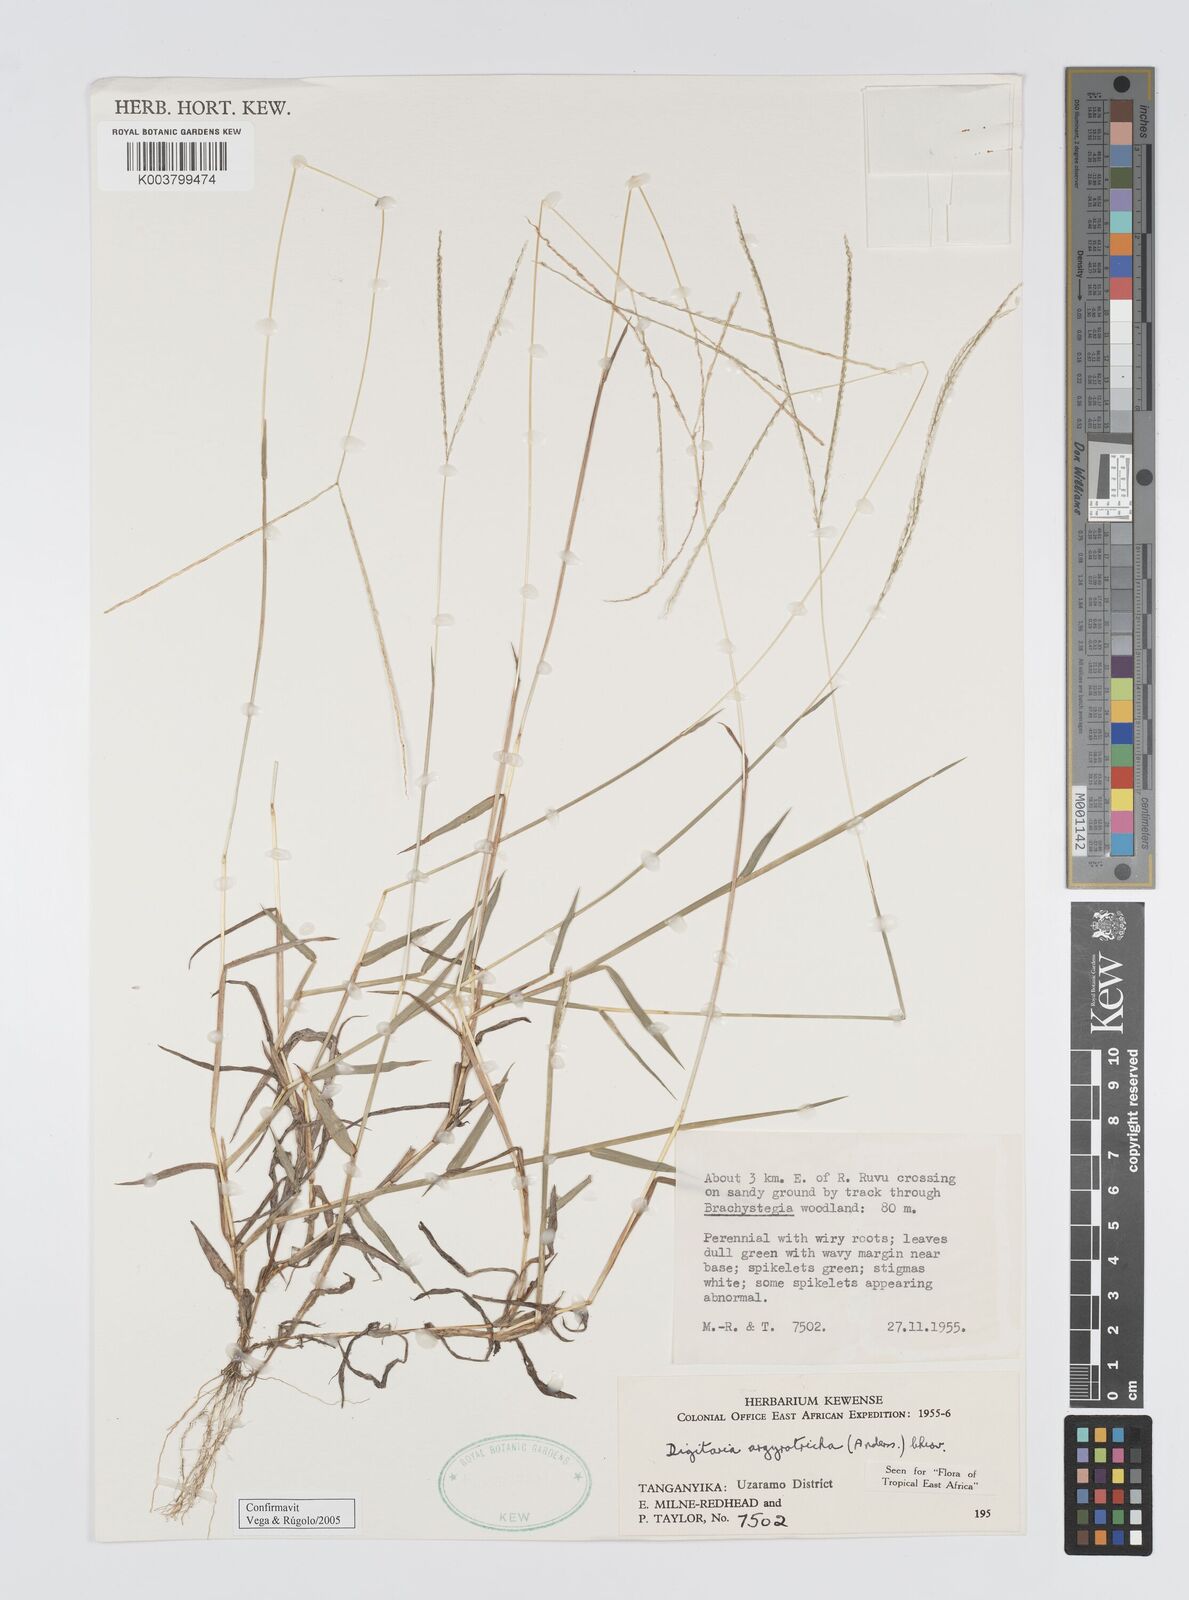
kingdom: Plantae
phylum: Tracheophyta
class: Liliopsida
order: Poales
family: Poaceae
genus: Digitaria
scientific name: Digitaria argyrotricha
